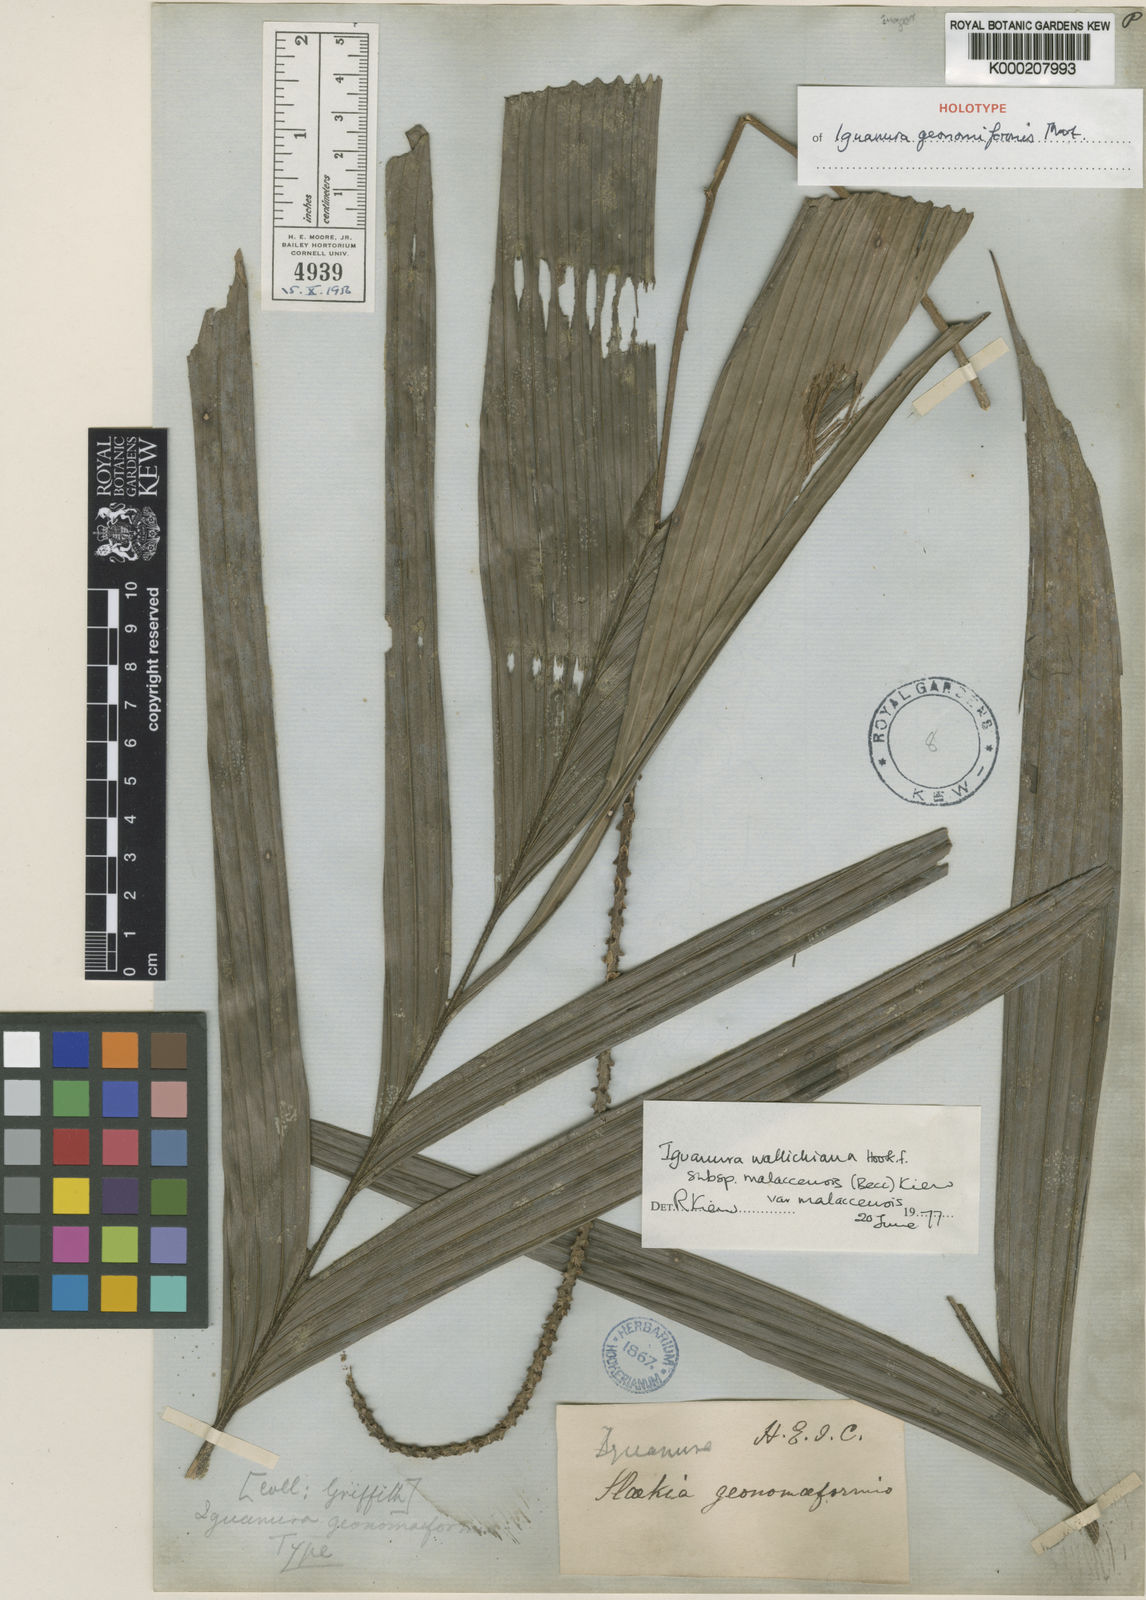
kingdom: Plantae
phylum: Tracheophyta
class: Liliopsida
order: Arecales
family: Arecaceae
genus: Iguanura
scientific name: Iguanura geonomiformis
